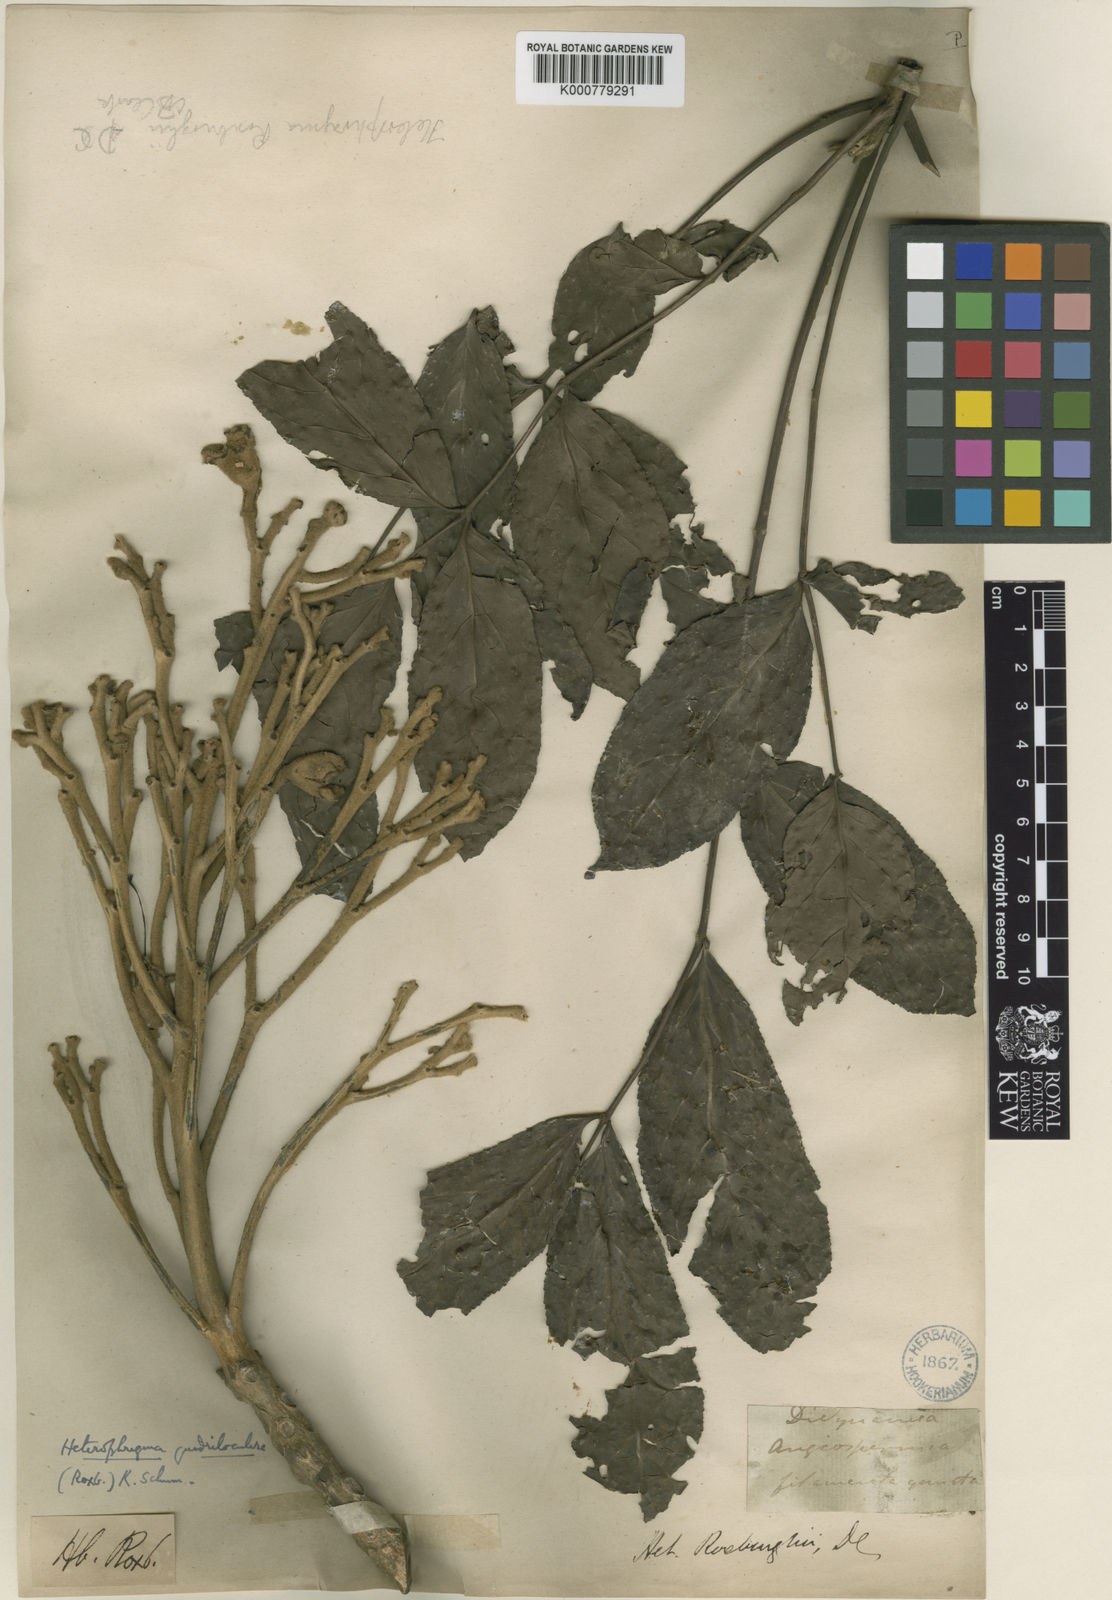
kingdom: Plantae
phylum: Tracheophyta
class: Magnoliopsida
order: Lamiales
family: Bignoniaceae
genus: Heterophragma
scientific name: Heterophragma quadriloculare
